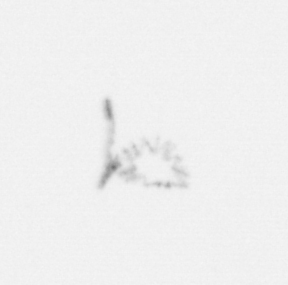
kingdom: Chromista
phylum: Ochrophyta
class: Bacillariophyceae
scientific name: Bacillariophyceae
